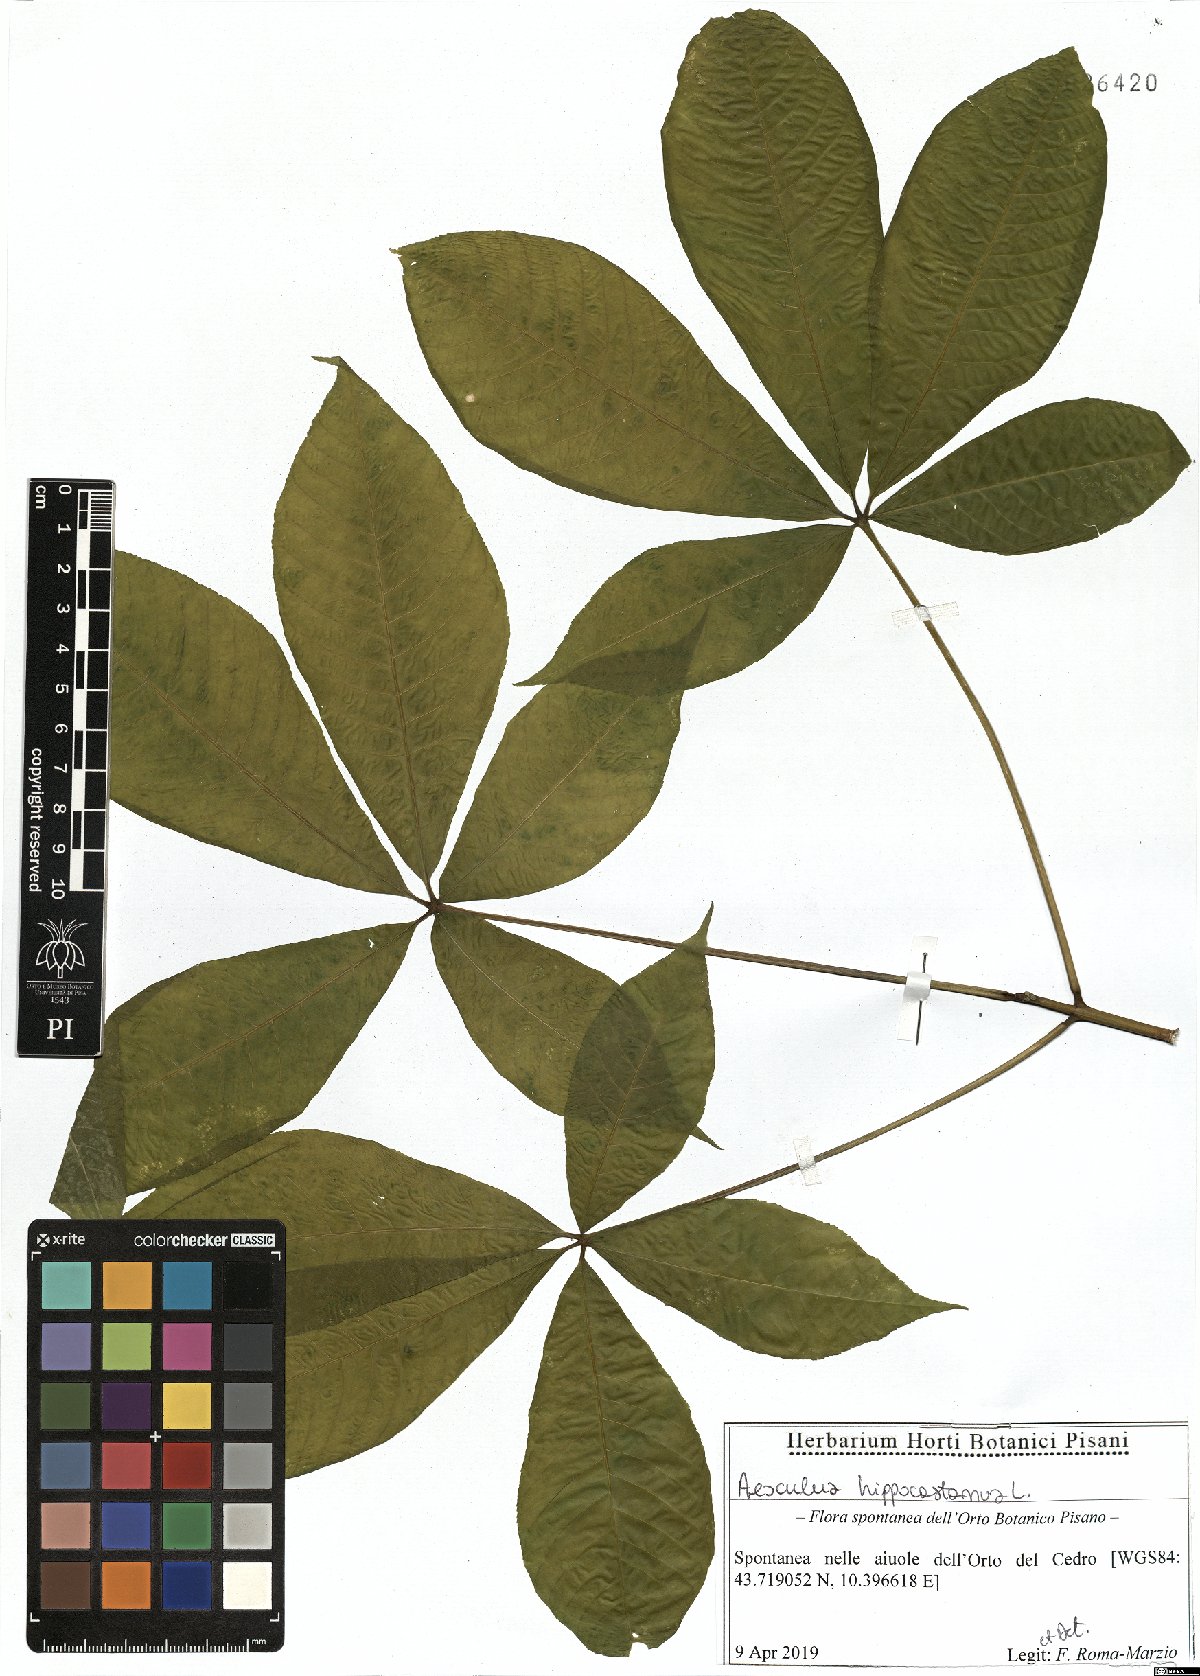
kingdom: Plantae
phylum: Tracheophyta
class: Magnoliopsida
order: Sapindales
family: Sapindaceae
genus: Aesculus
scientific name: Aesculus hippocastanum
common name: Horse-chestnut
